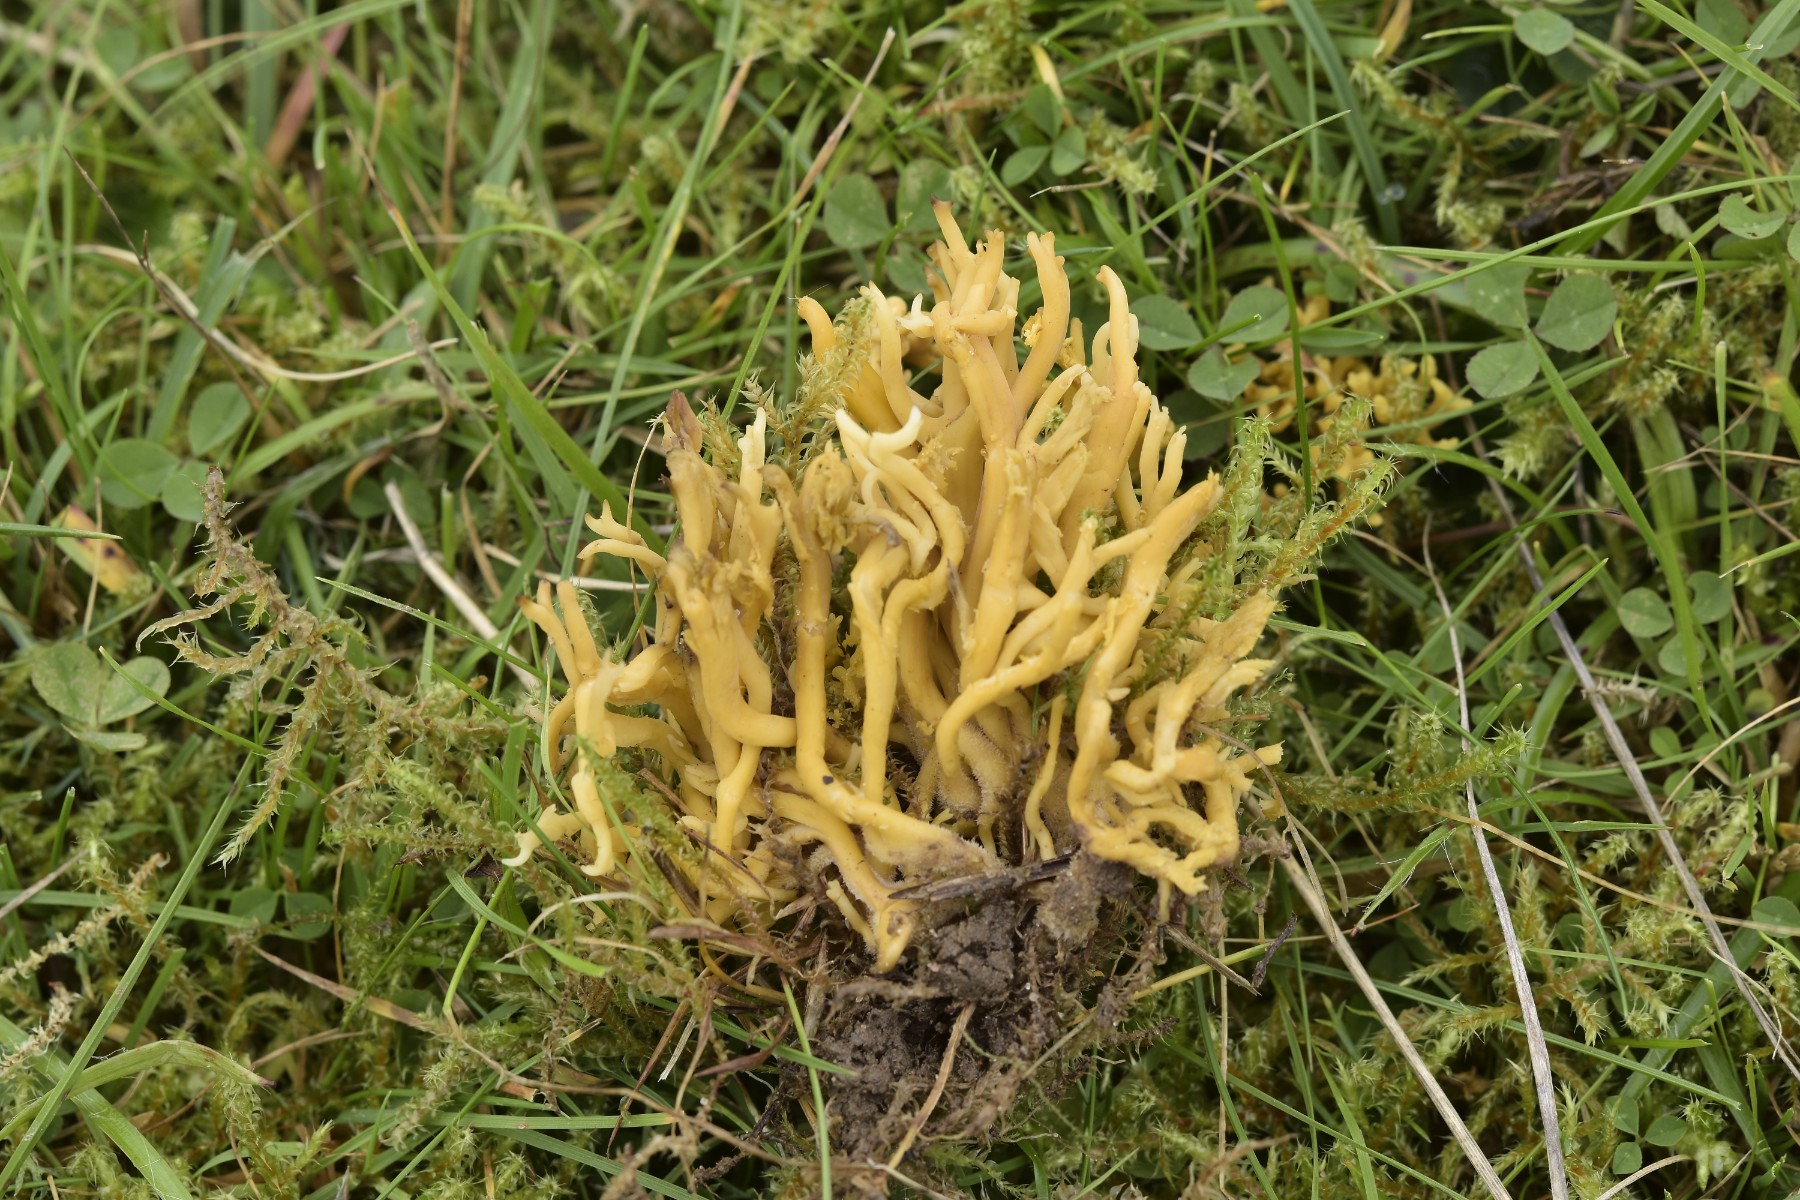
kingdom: Fungi
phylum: Basidiomycota
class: Agaricomycetes
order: Agaricales
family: Clavariaceae
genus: Clavulinopsis
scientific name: Clavulinopsis corniculata
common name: eng-køllesvamp
